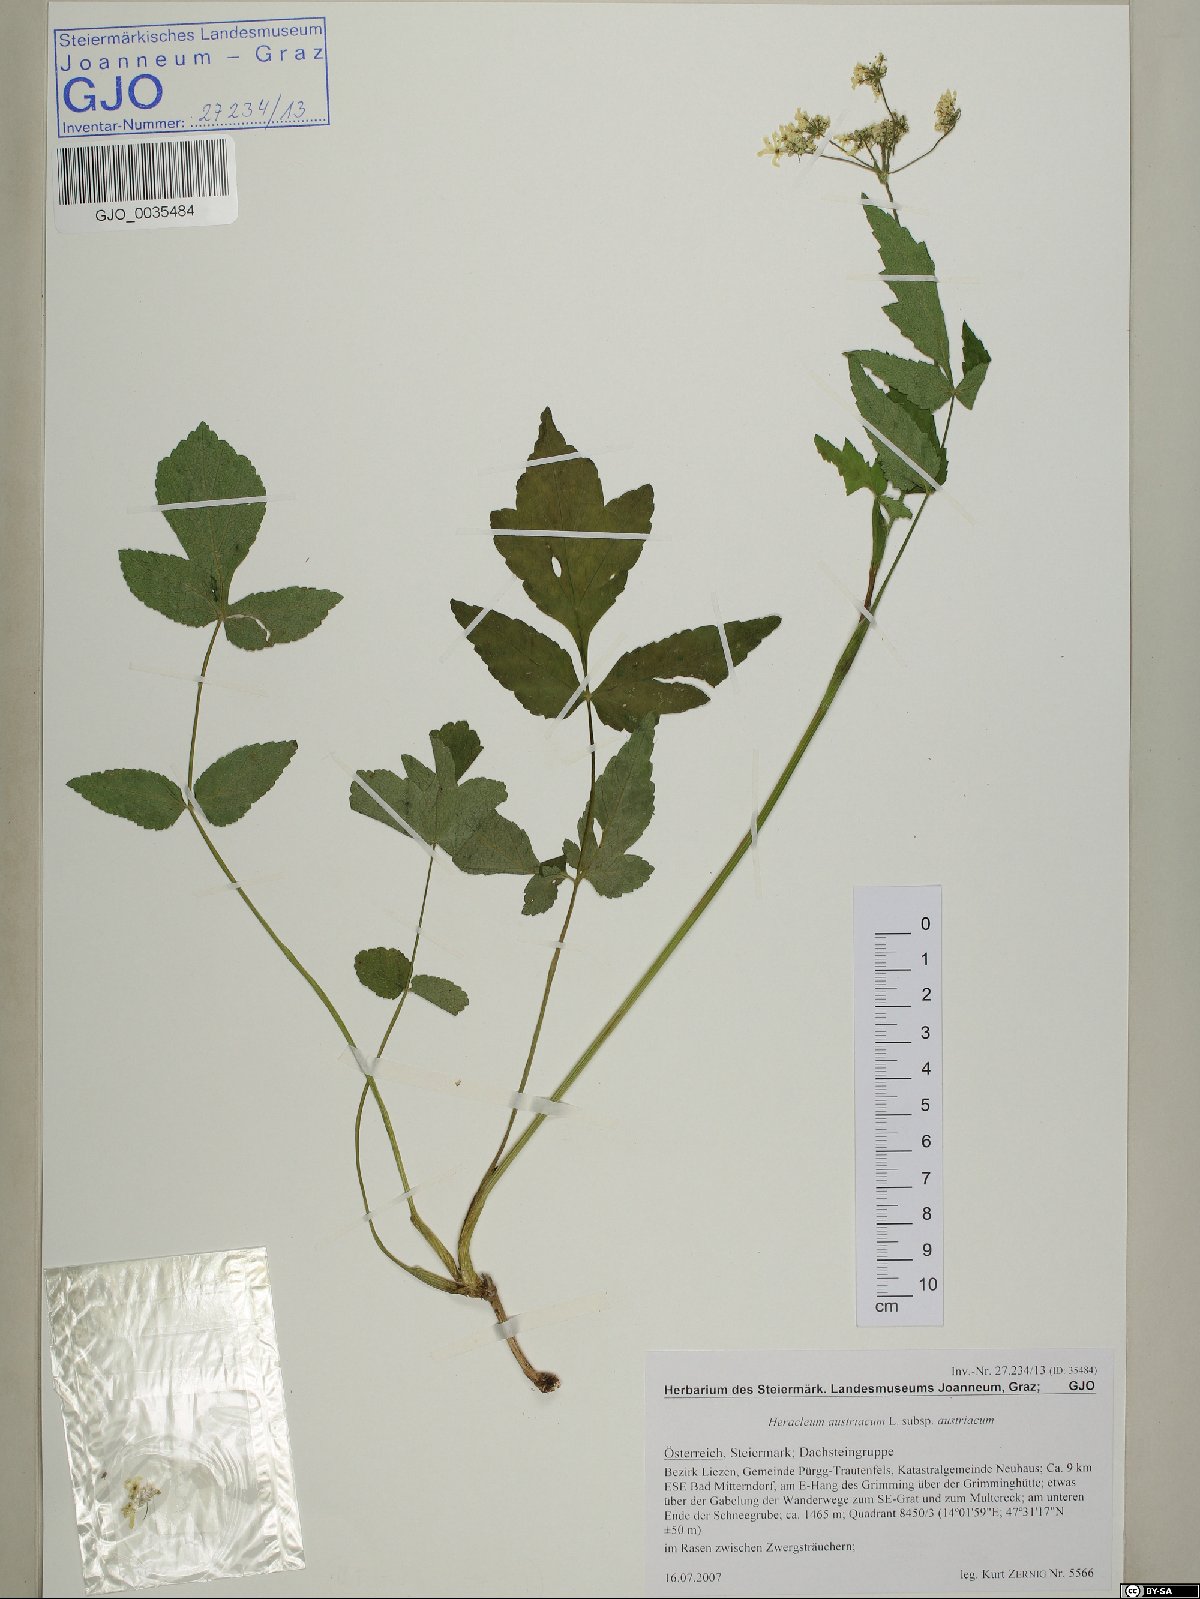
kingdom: Plantae
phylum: Tracheophyta
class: Magnoliopsida
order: Apiales
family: Apiaceae
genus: Heracleum
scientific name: Heracleum austriacum
